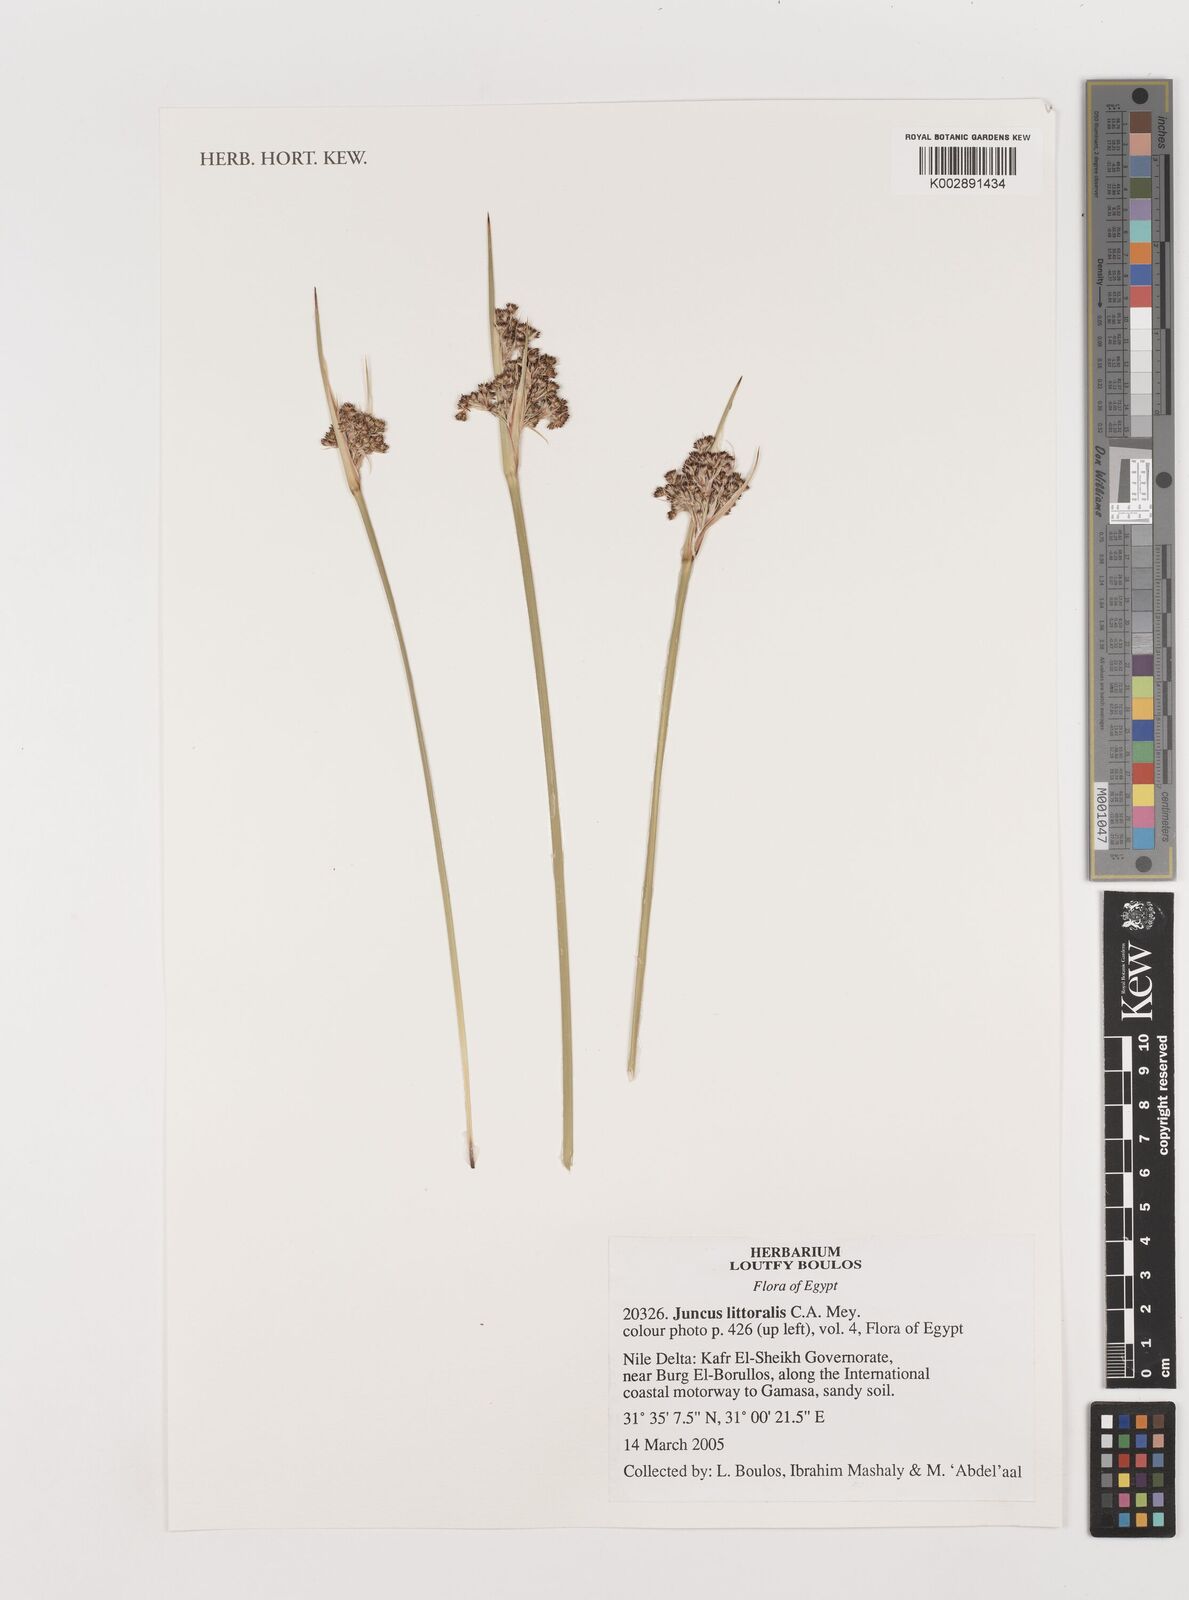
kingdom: Plantae
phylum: Tracheophyta
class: Liliopsida
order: Poales
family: Juncaceae
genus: Juncus
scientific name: Juncus littoralis
